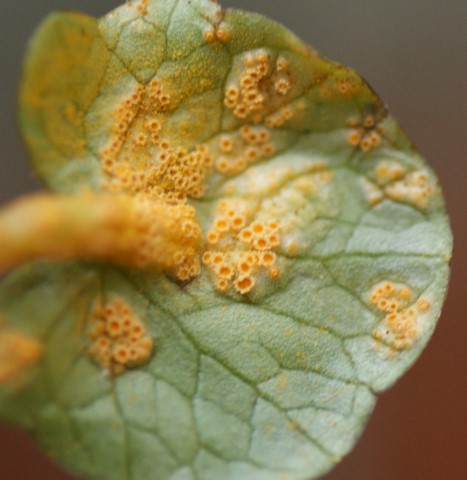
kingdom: Fungi
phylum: Basidiomycota
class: Pucciniomycetes
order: Pucciniales
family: Pucciniaceae
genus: Uromyces
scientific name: Uromyces dactylidis
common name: ranunkel-encellerust
